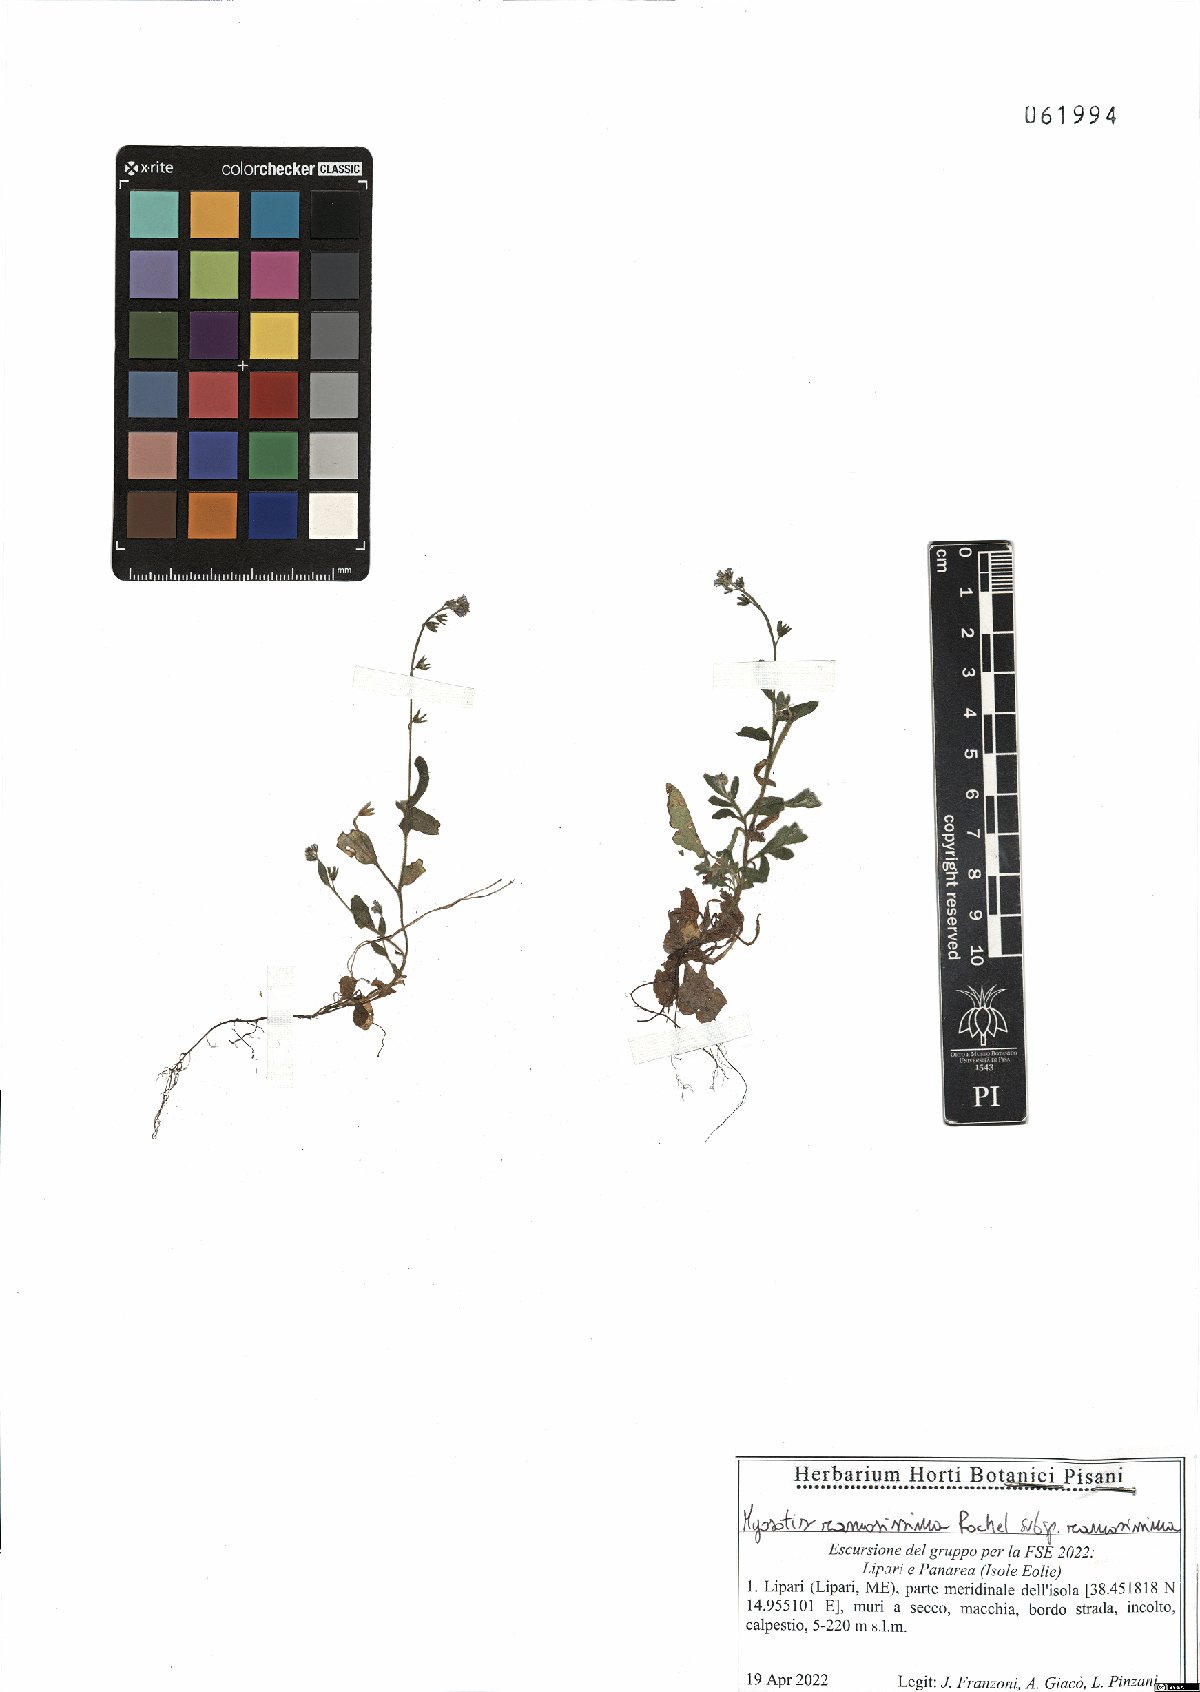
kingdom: Plantae
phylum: Tracheophyta
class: Magnoliopsida
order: Boraginales
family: Boraginaceae
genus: Myosotis
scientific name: Myosotis ramosissima
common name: Early forget-me-not
